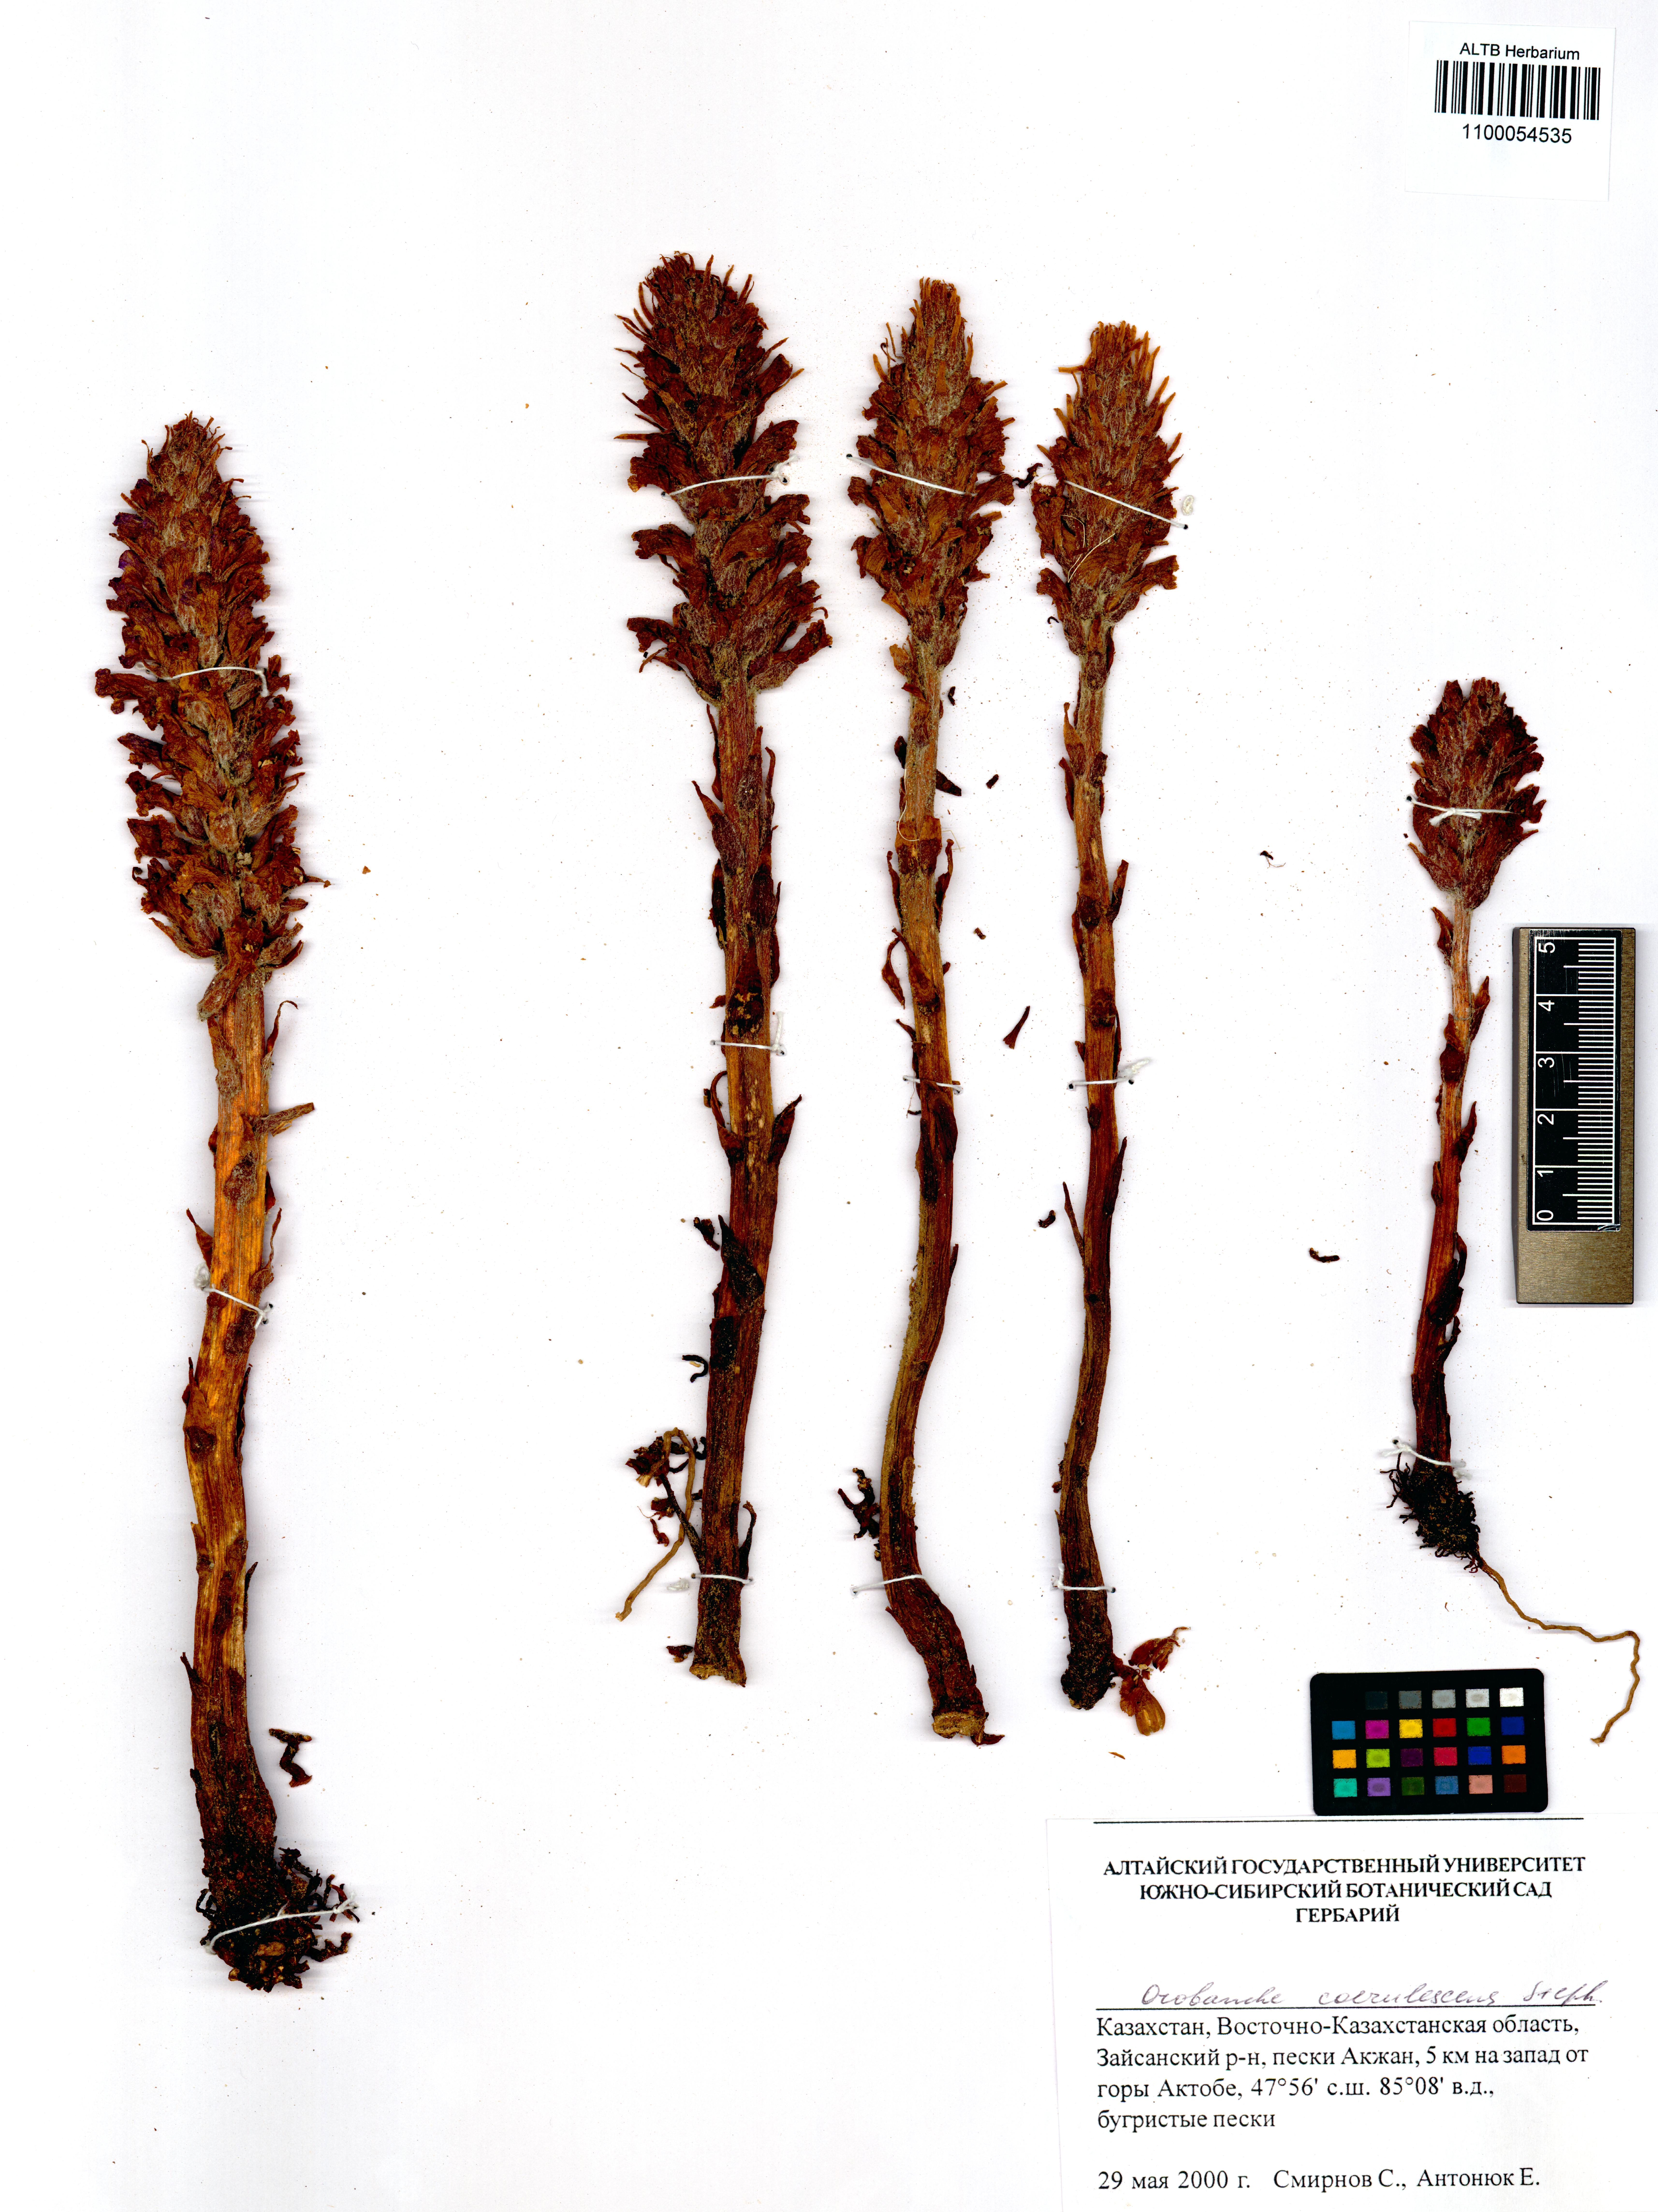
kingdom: Plantae
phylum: Tracheophyta
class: Magnoliopsida
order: Lamiales
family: Orobanchaceae
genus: Orobanche
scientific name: Orobanche coerulescens
